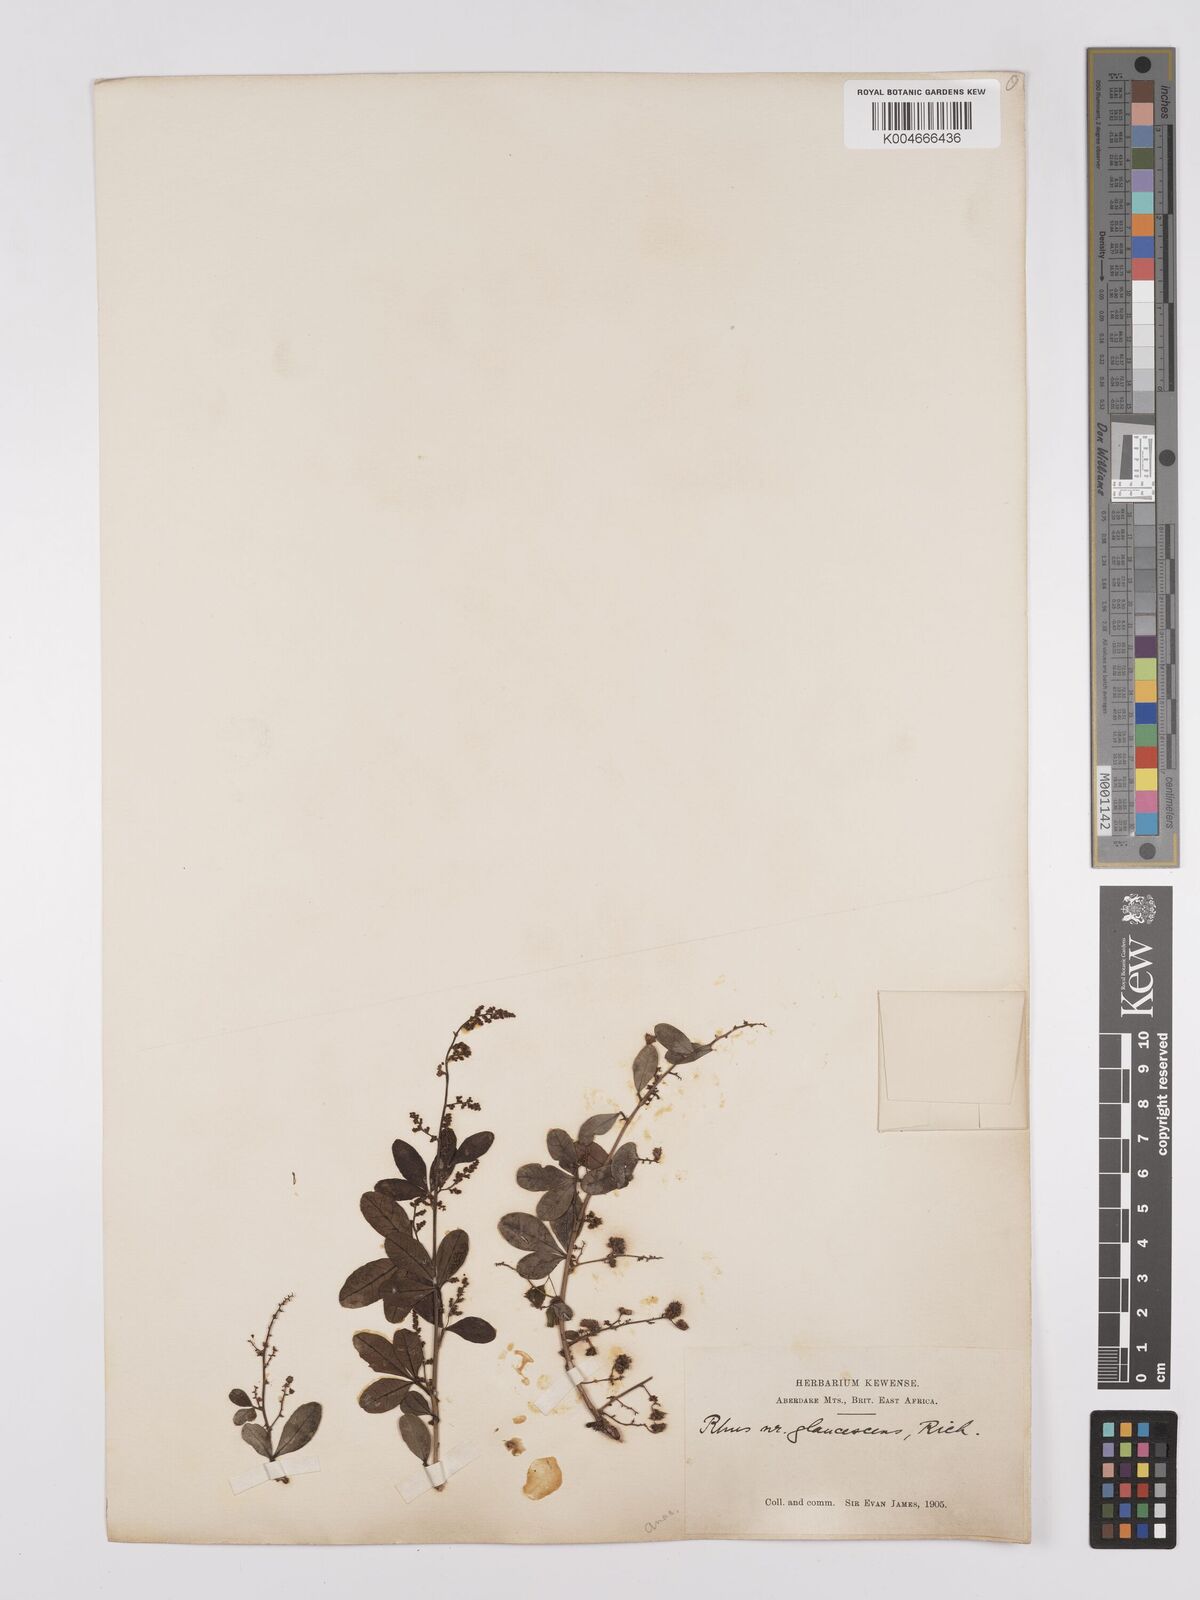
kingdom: Plantae
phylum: Tracheophyta
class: Magnoliopsida
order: Sapindales
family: Anacardiaceae
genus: Searsia
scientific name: Searsia quartiniana
